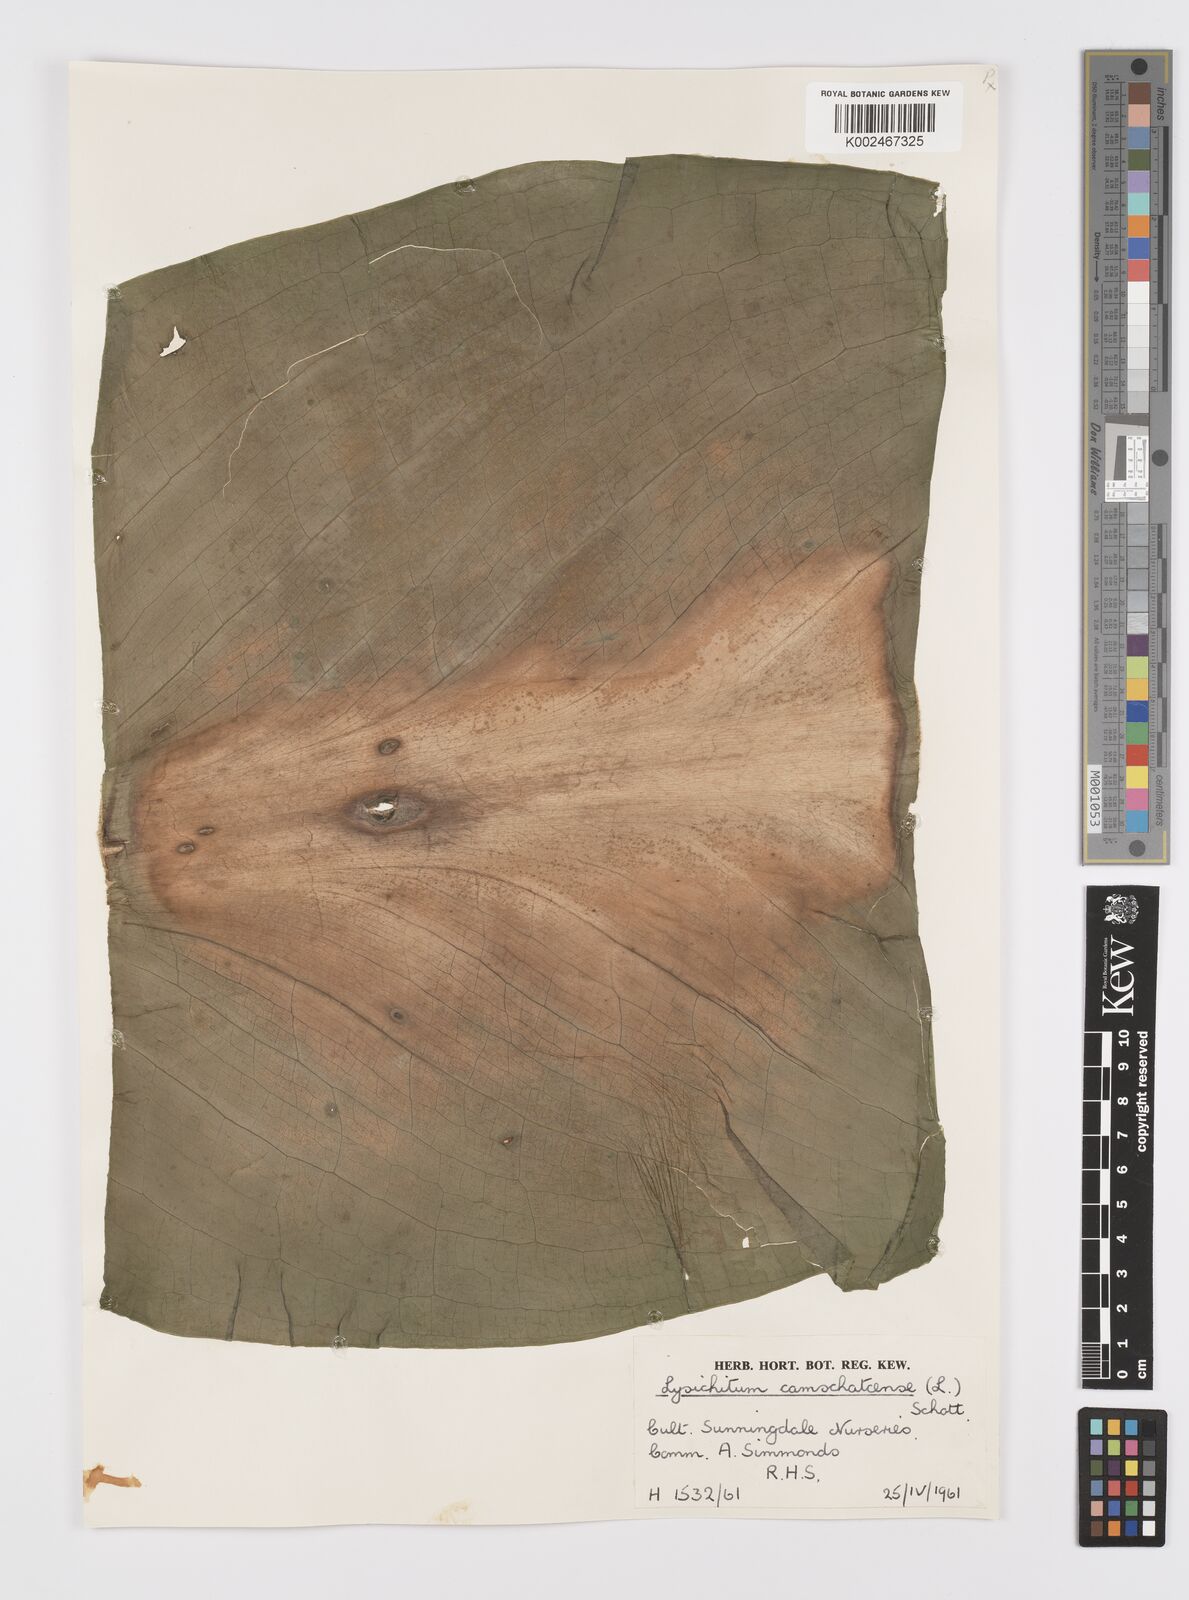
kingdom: Plantae
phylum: Tracheophyta
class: Liliopsida
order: Alismatales
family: Araceae
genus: Lysichiton
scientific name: Lysichiton americanus
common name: American skunk cabbage
